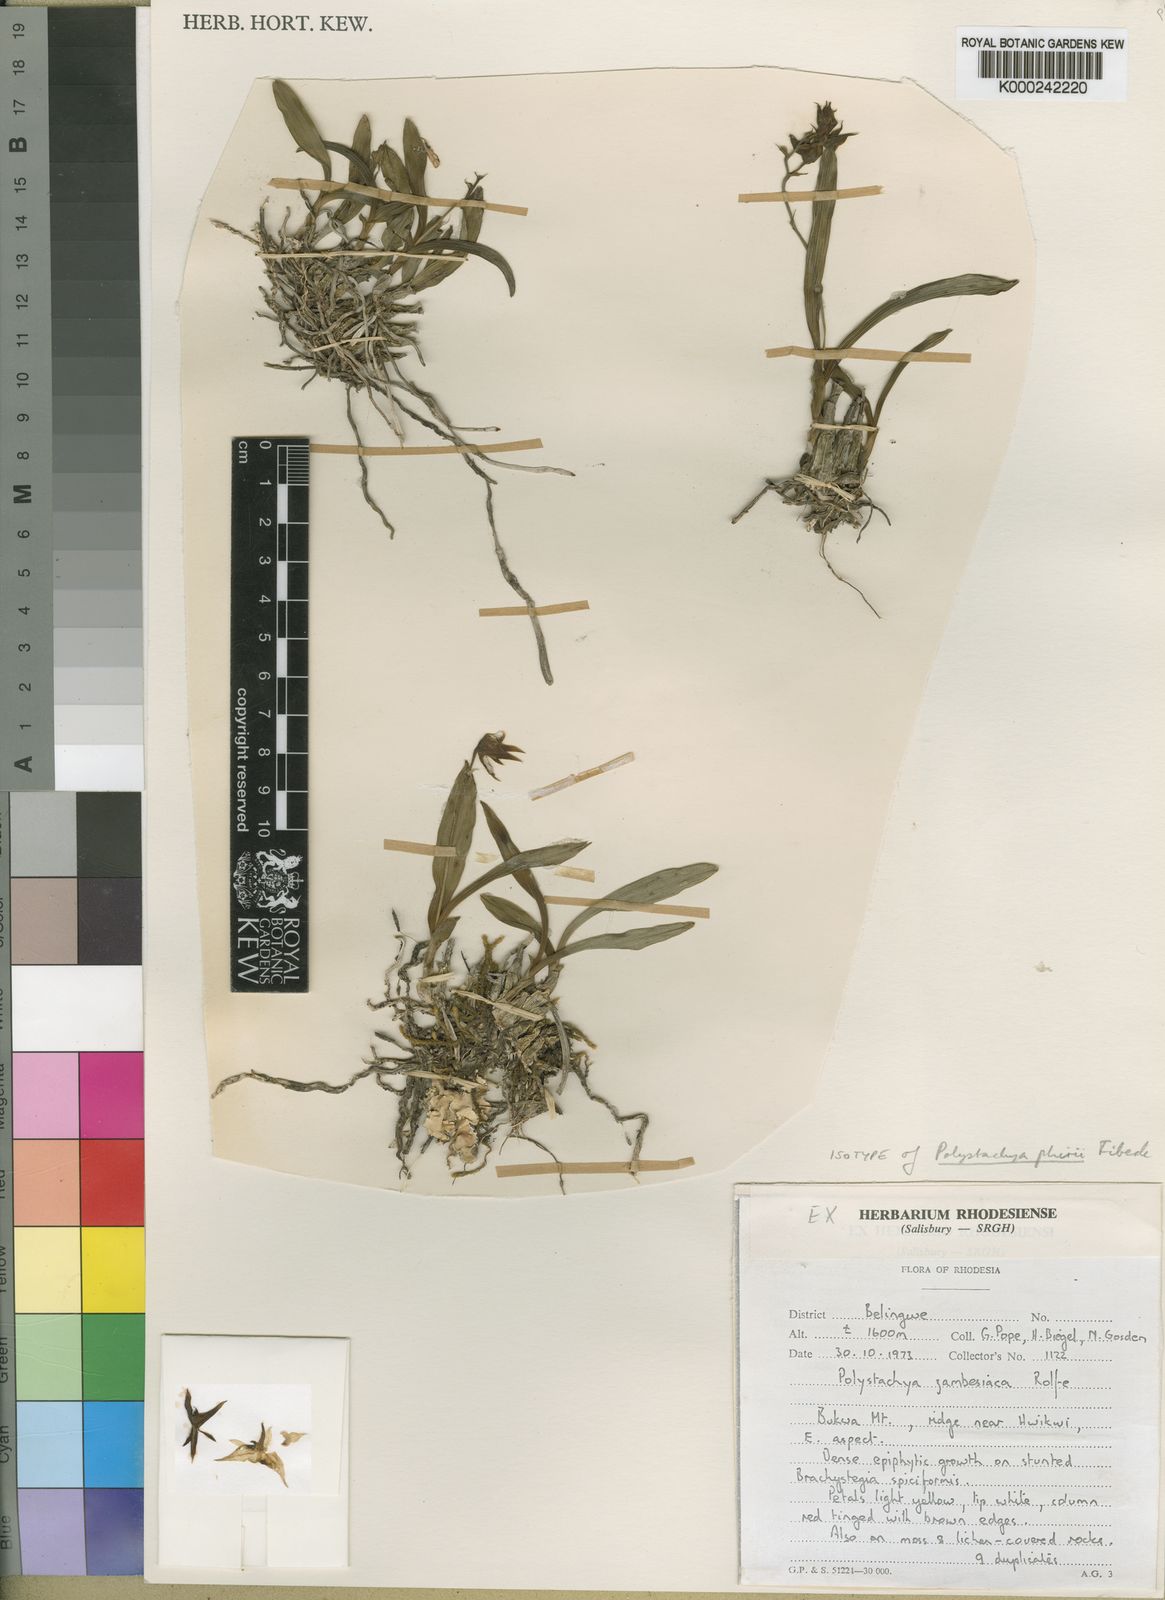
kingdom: Plantae
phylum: Tracheophyta
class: Liliopsida
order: Asparagales
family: Orchidaceae
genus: Polystachya
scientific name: Polystachya zambesiaca
